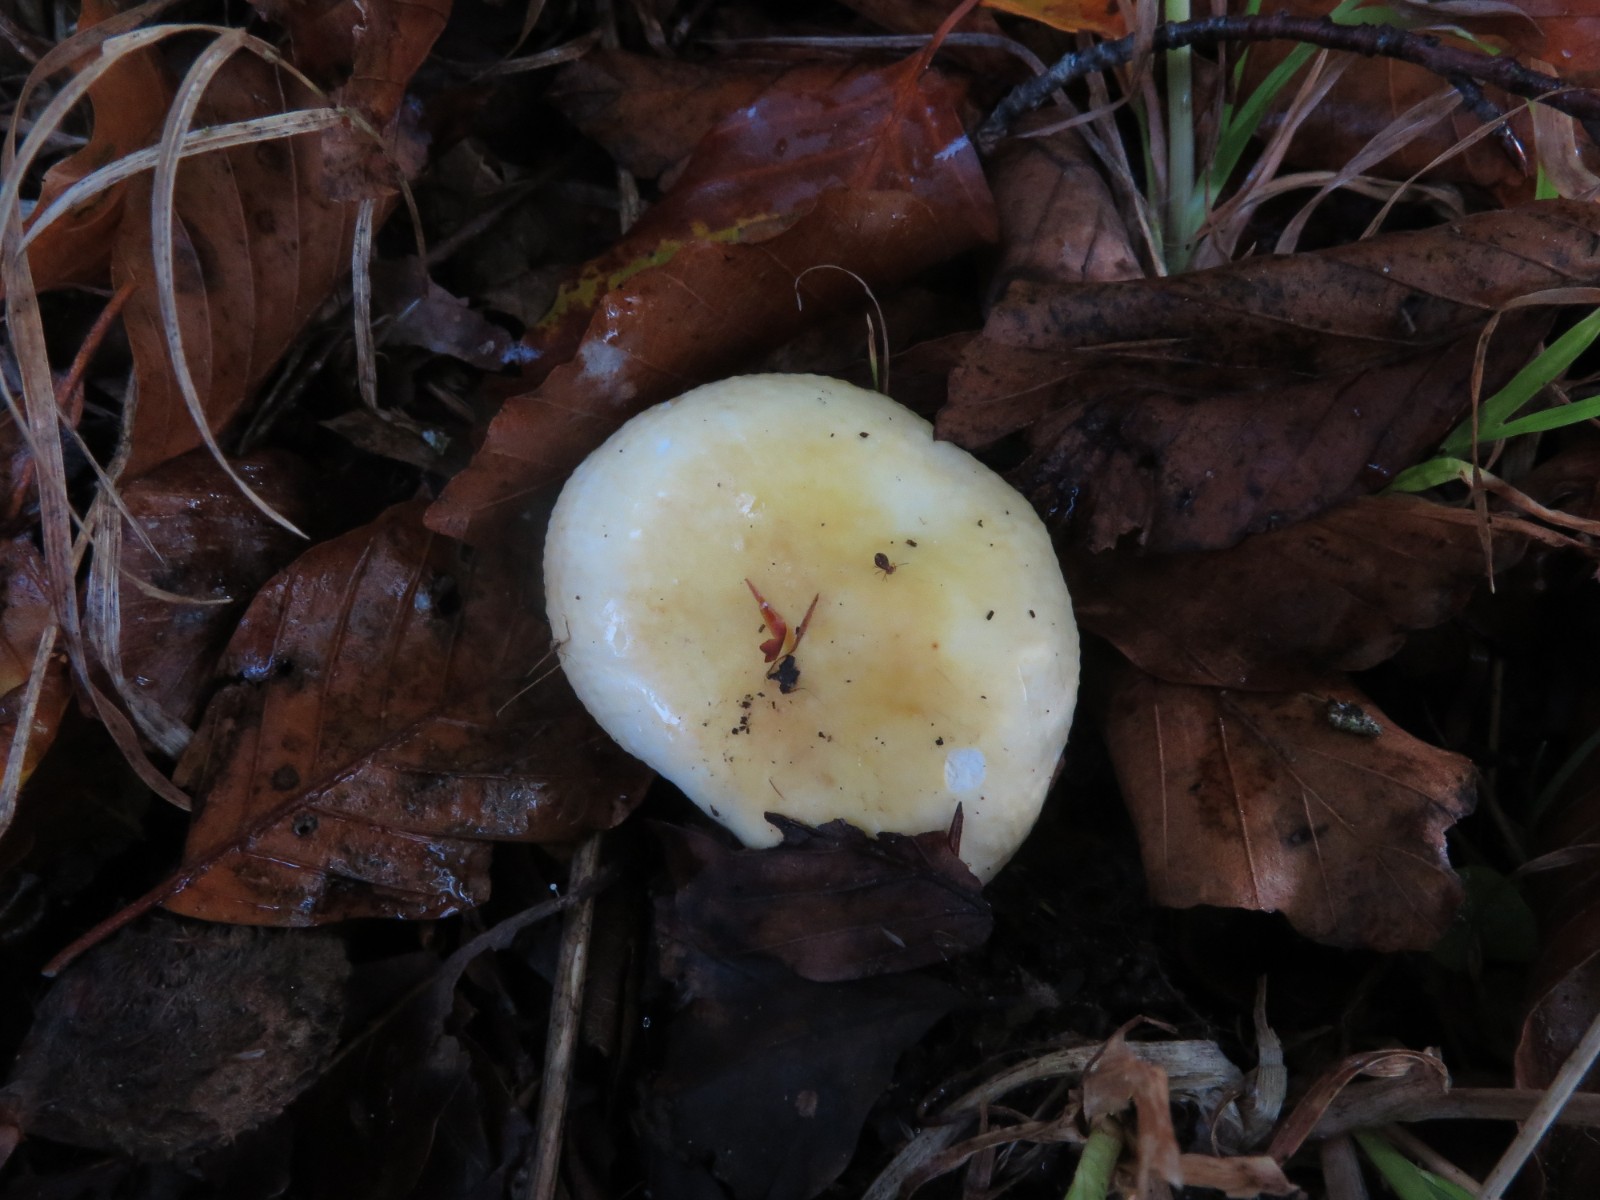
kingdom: Fungi
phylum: Basidiomycota
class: Agaricomycetes
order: Russulales
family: Russulaceae
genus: Russula
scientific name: Russula solaris
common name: sol-skørhat
